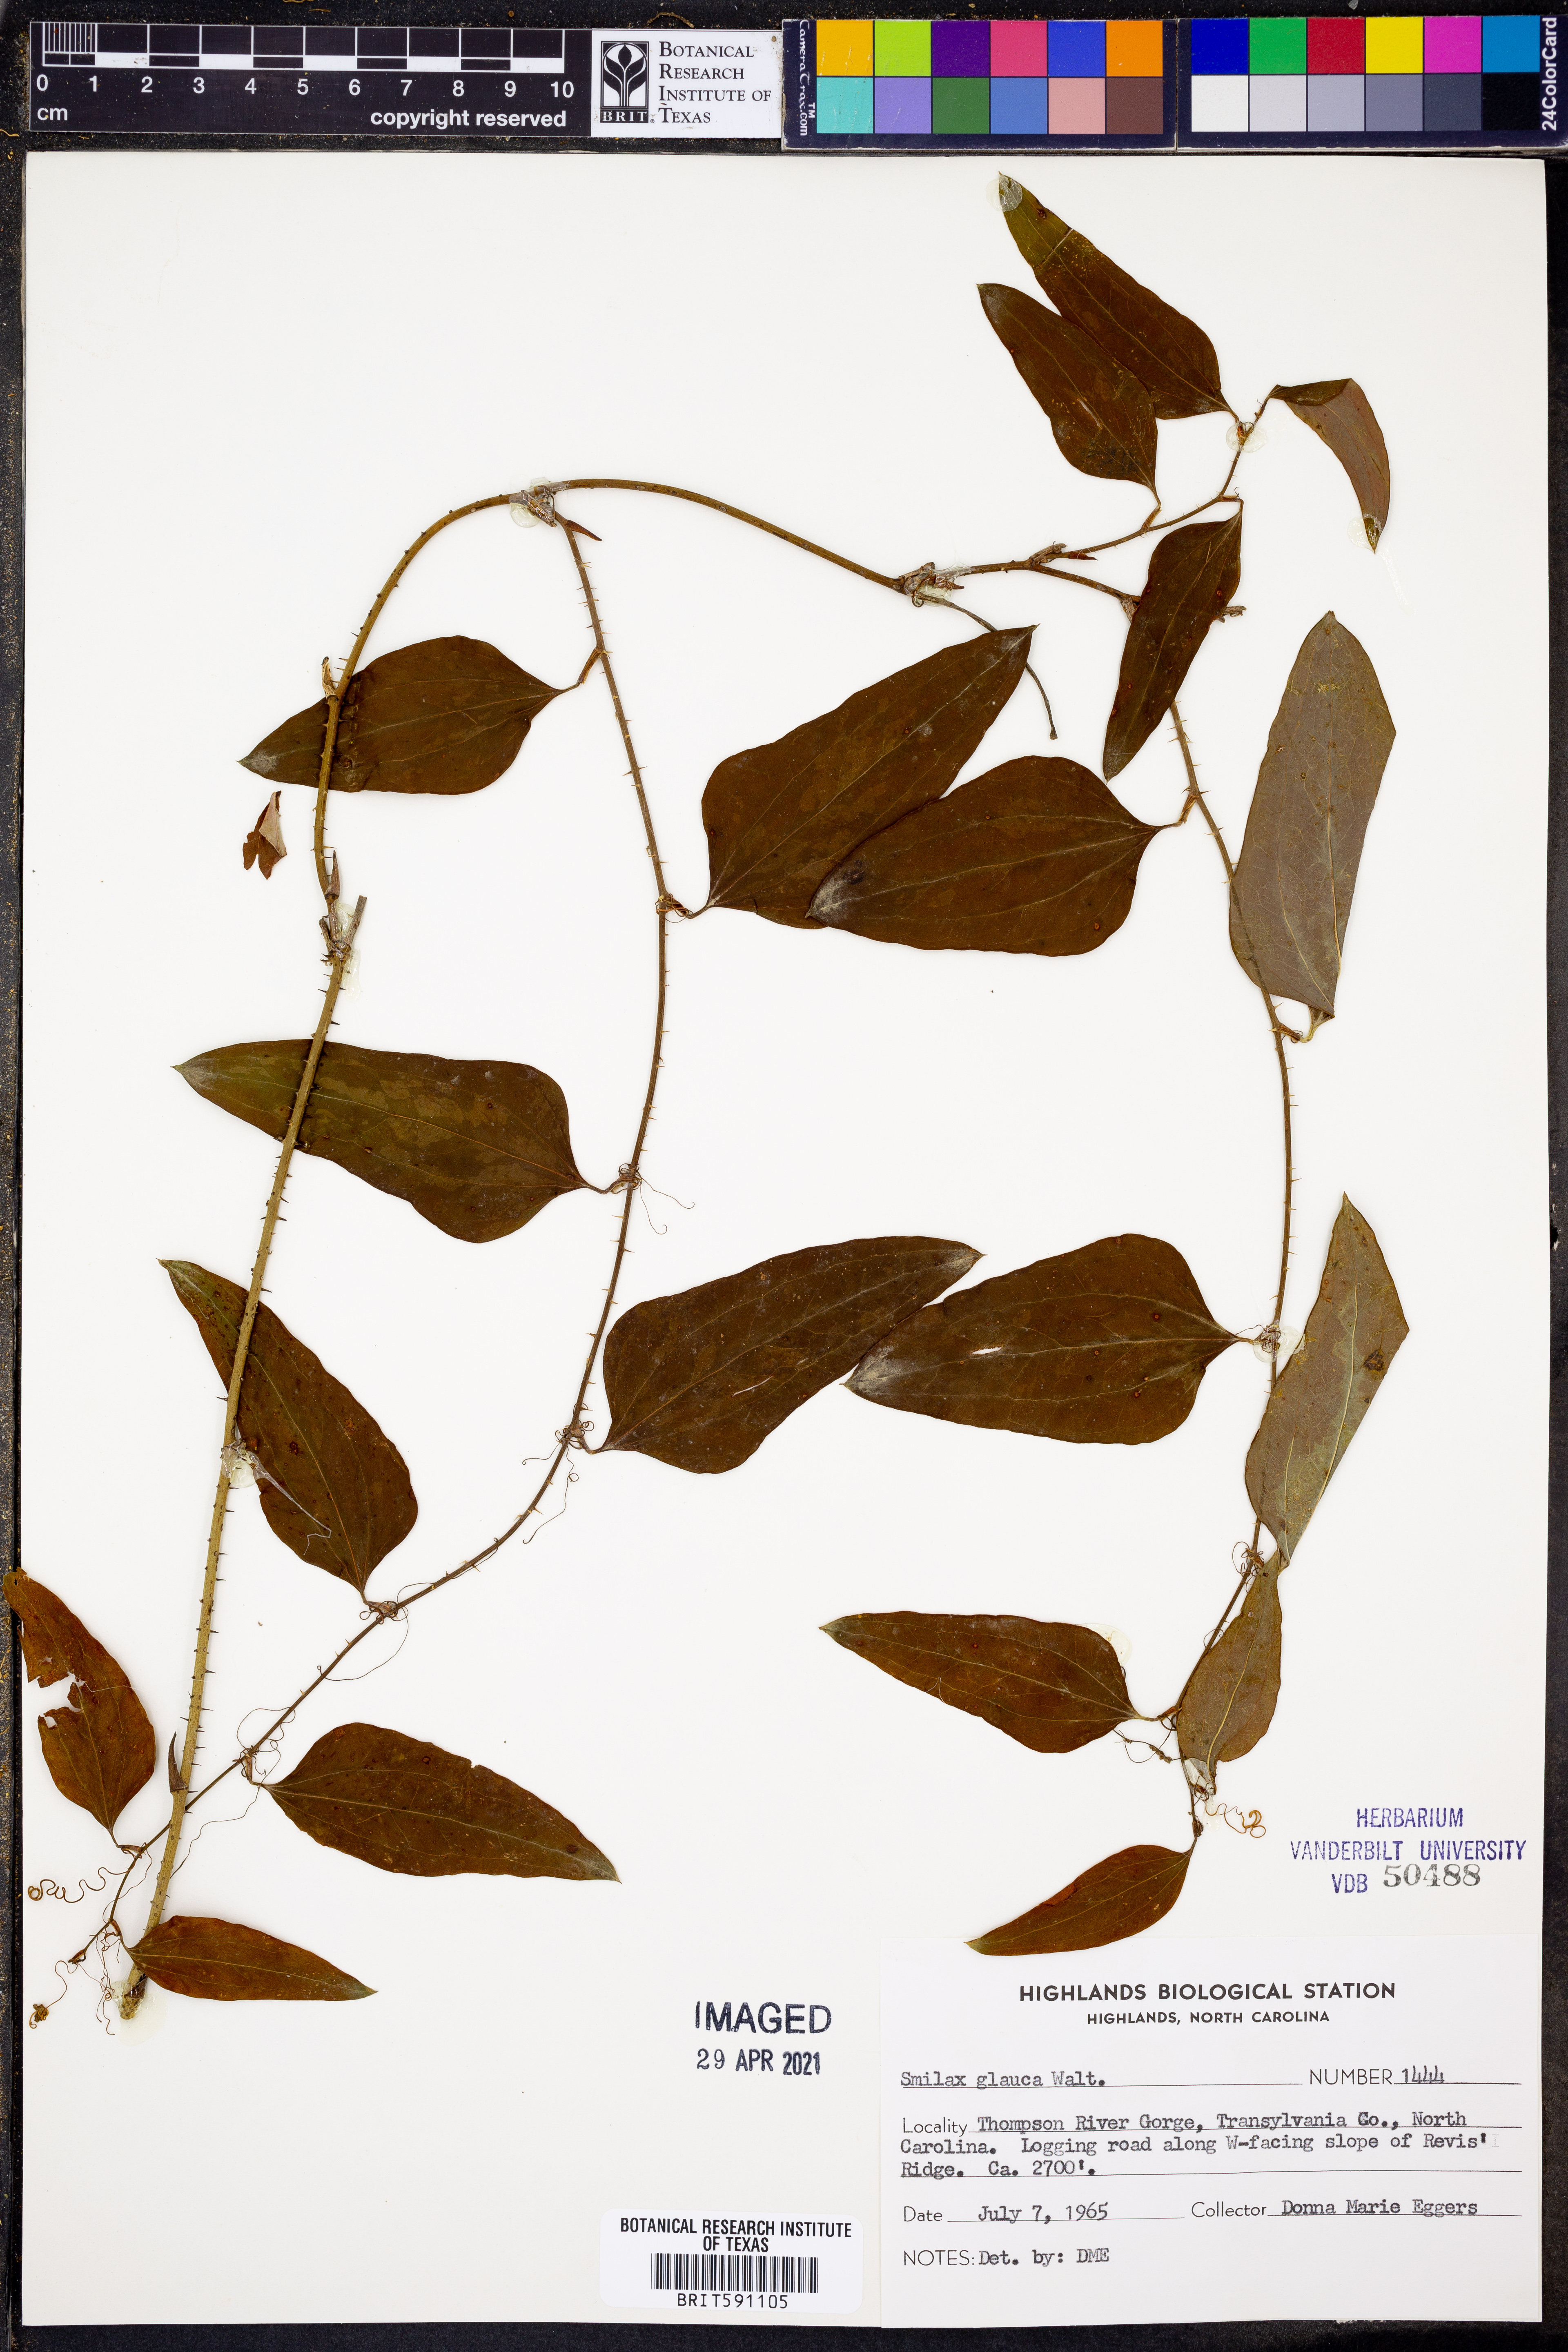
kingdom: Plantae
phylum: Tracheophyta
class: Liliopsida
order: Liliales
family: Smilacaceae
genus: Smilax
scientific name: Smilax glauca
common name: Cat greenbrier
